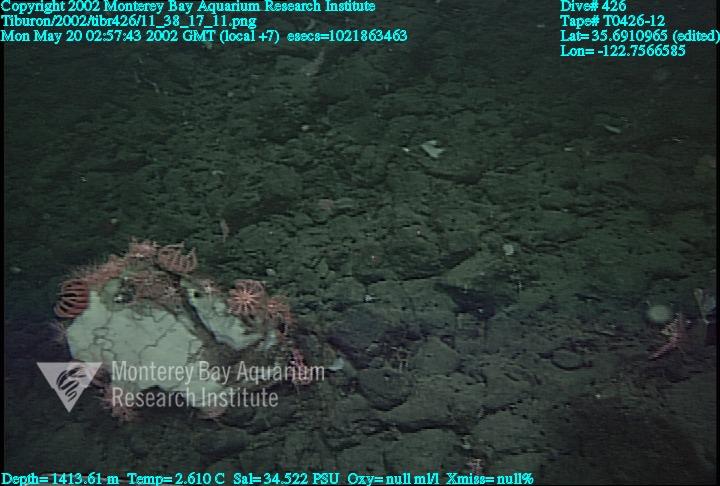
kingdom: Animalia
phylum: Porifera
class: Hexactinellida
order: Sceptrulophora
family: Euretidae
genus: Chonelasma
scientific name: Chonelasma
